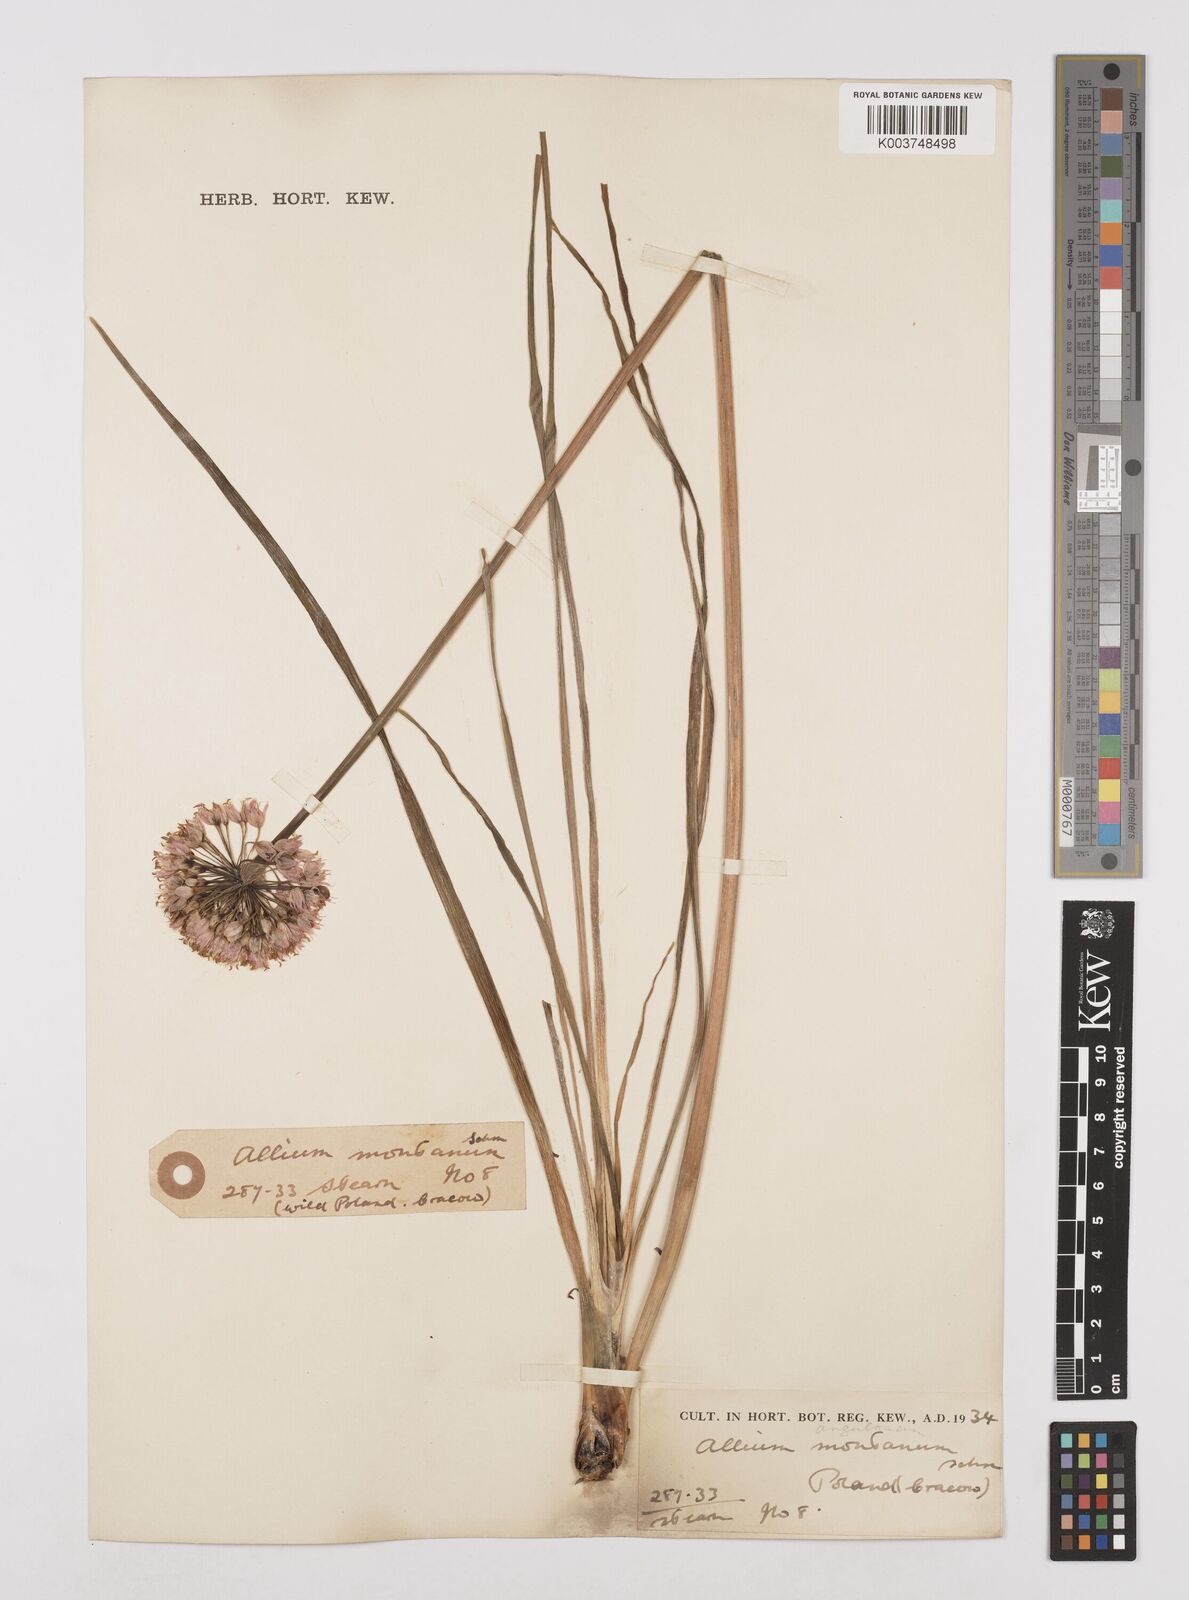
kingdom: Plantae
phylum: Tracheophyta
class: Liliopsida
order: Asparagales
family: Amaryllidaceae
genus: Allium
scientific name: Allium
